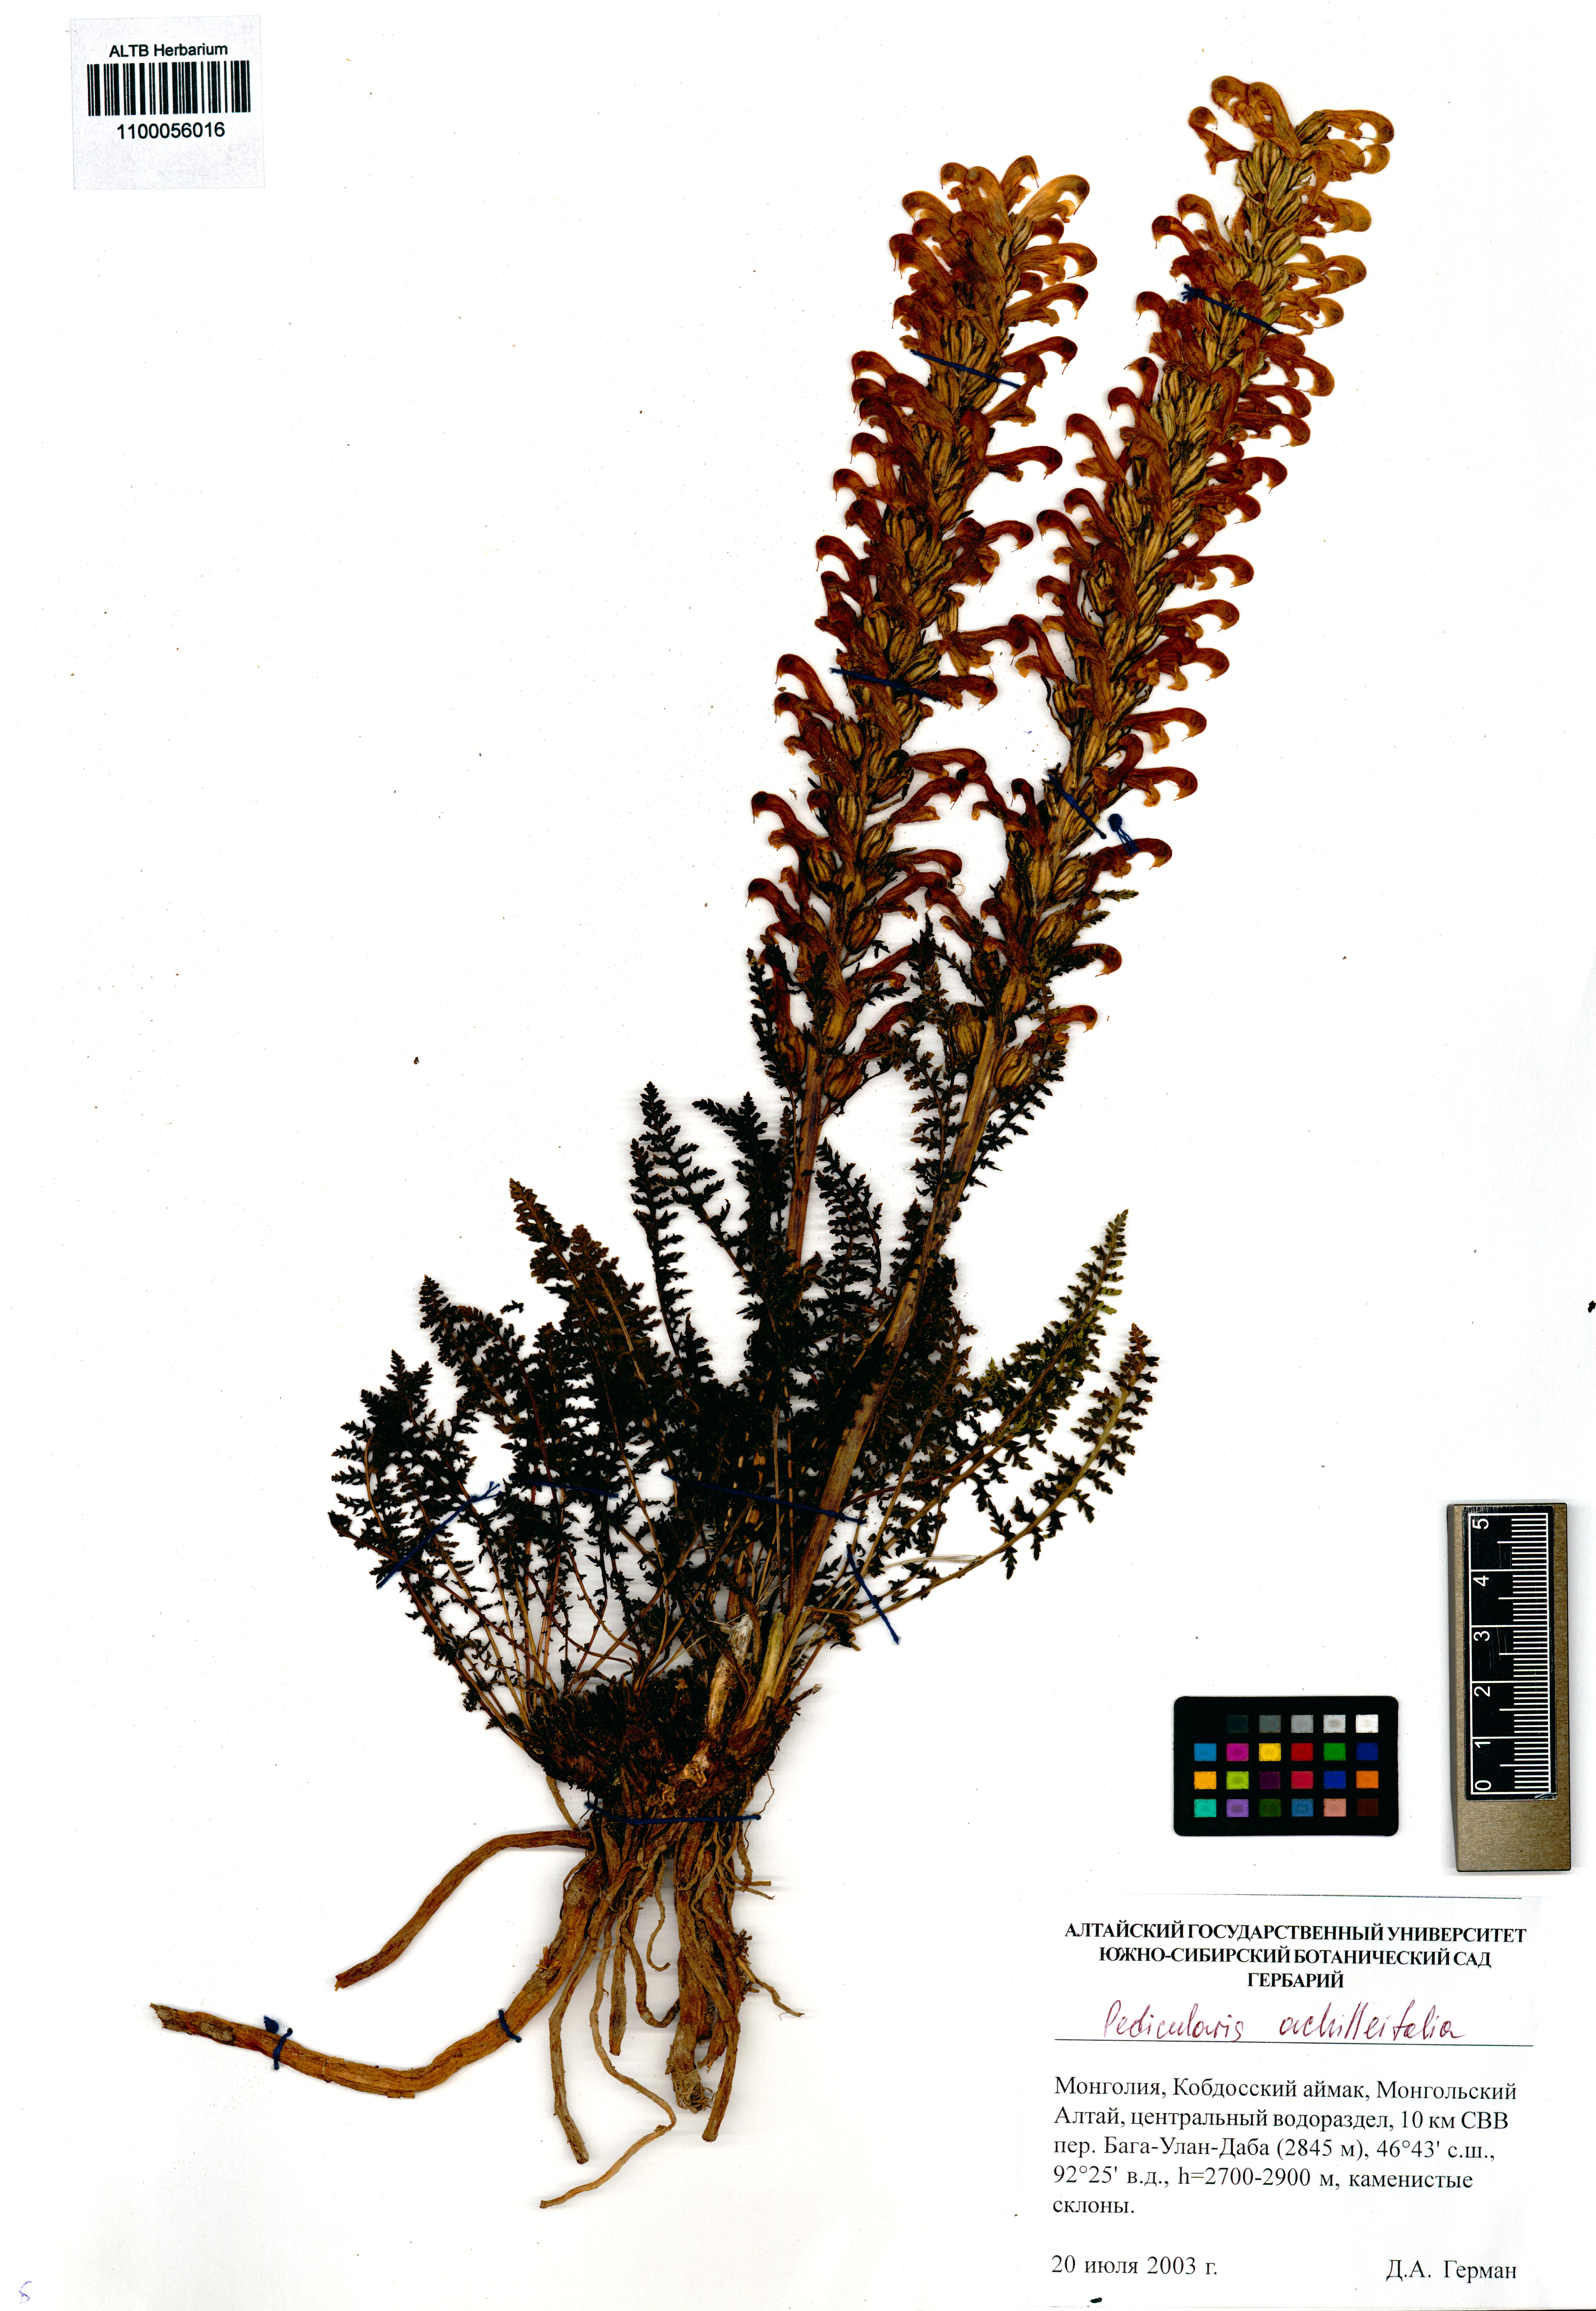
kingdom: Plantae
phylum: Tracheophyta
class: Magnoliopsida
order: Lamiales
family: Orobanchaceae
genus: Pedicularis
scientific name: Pedicularis achilleifolia
